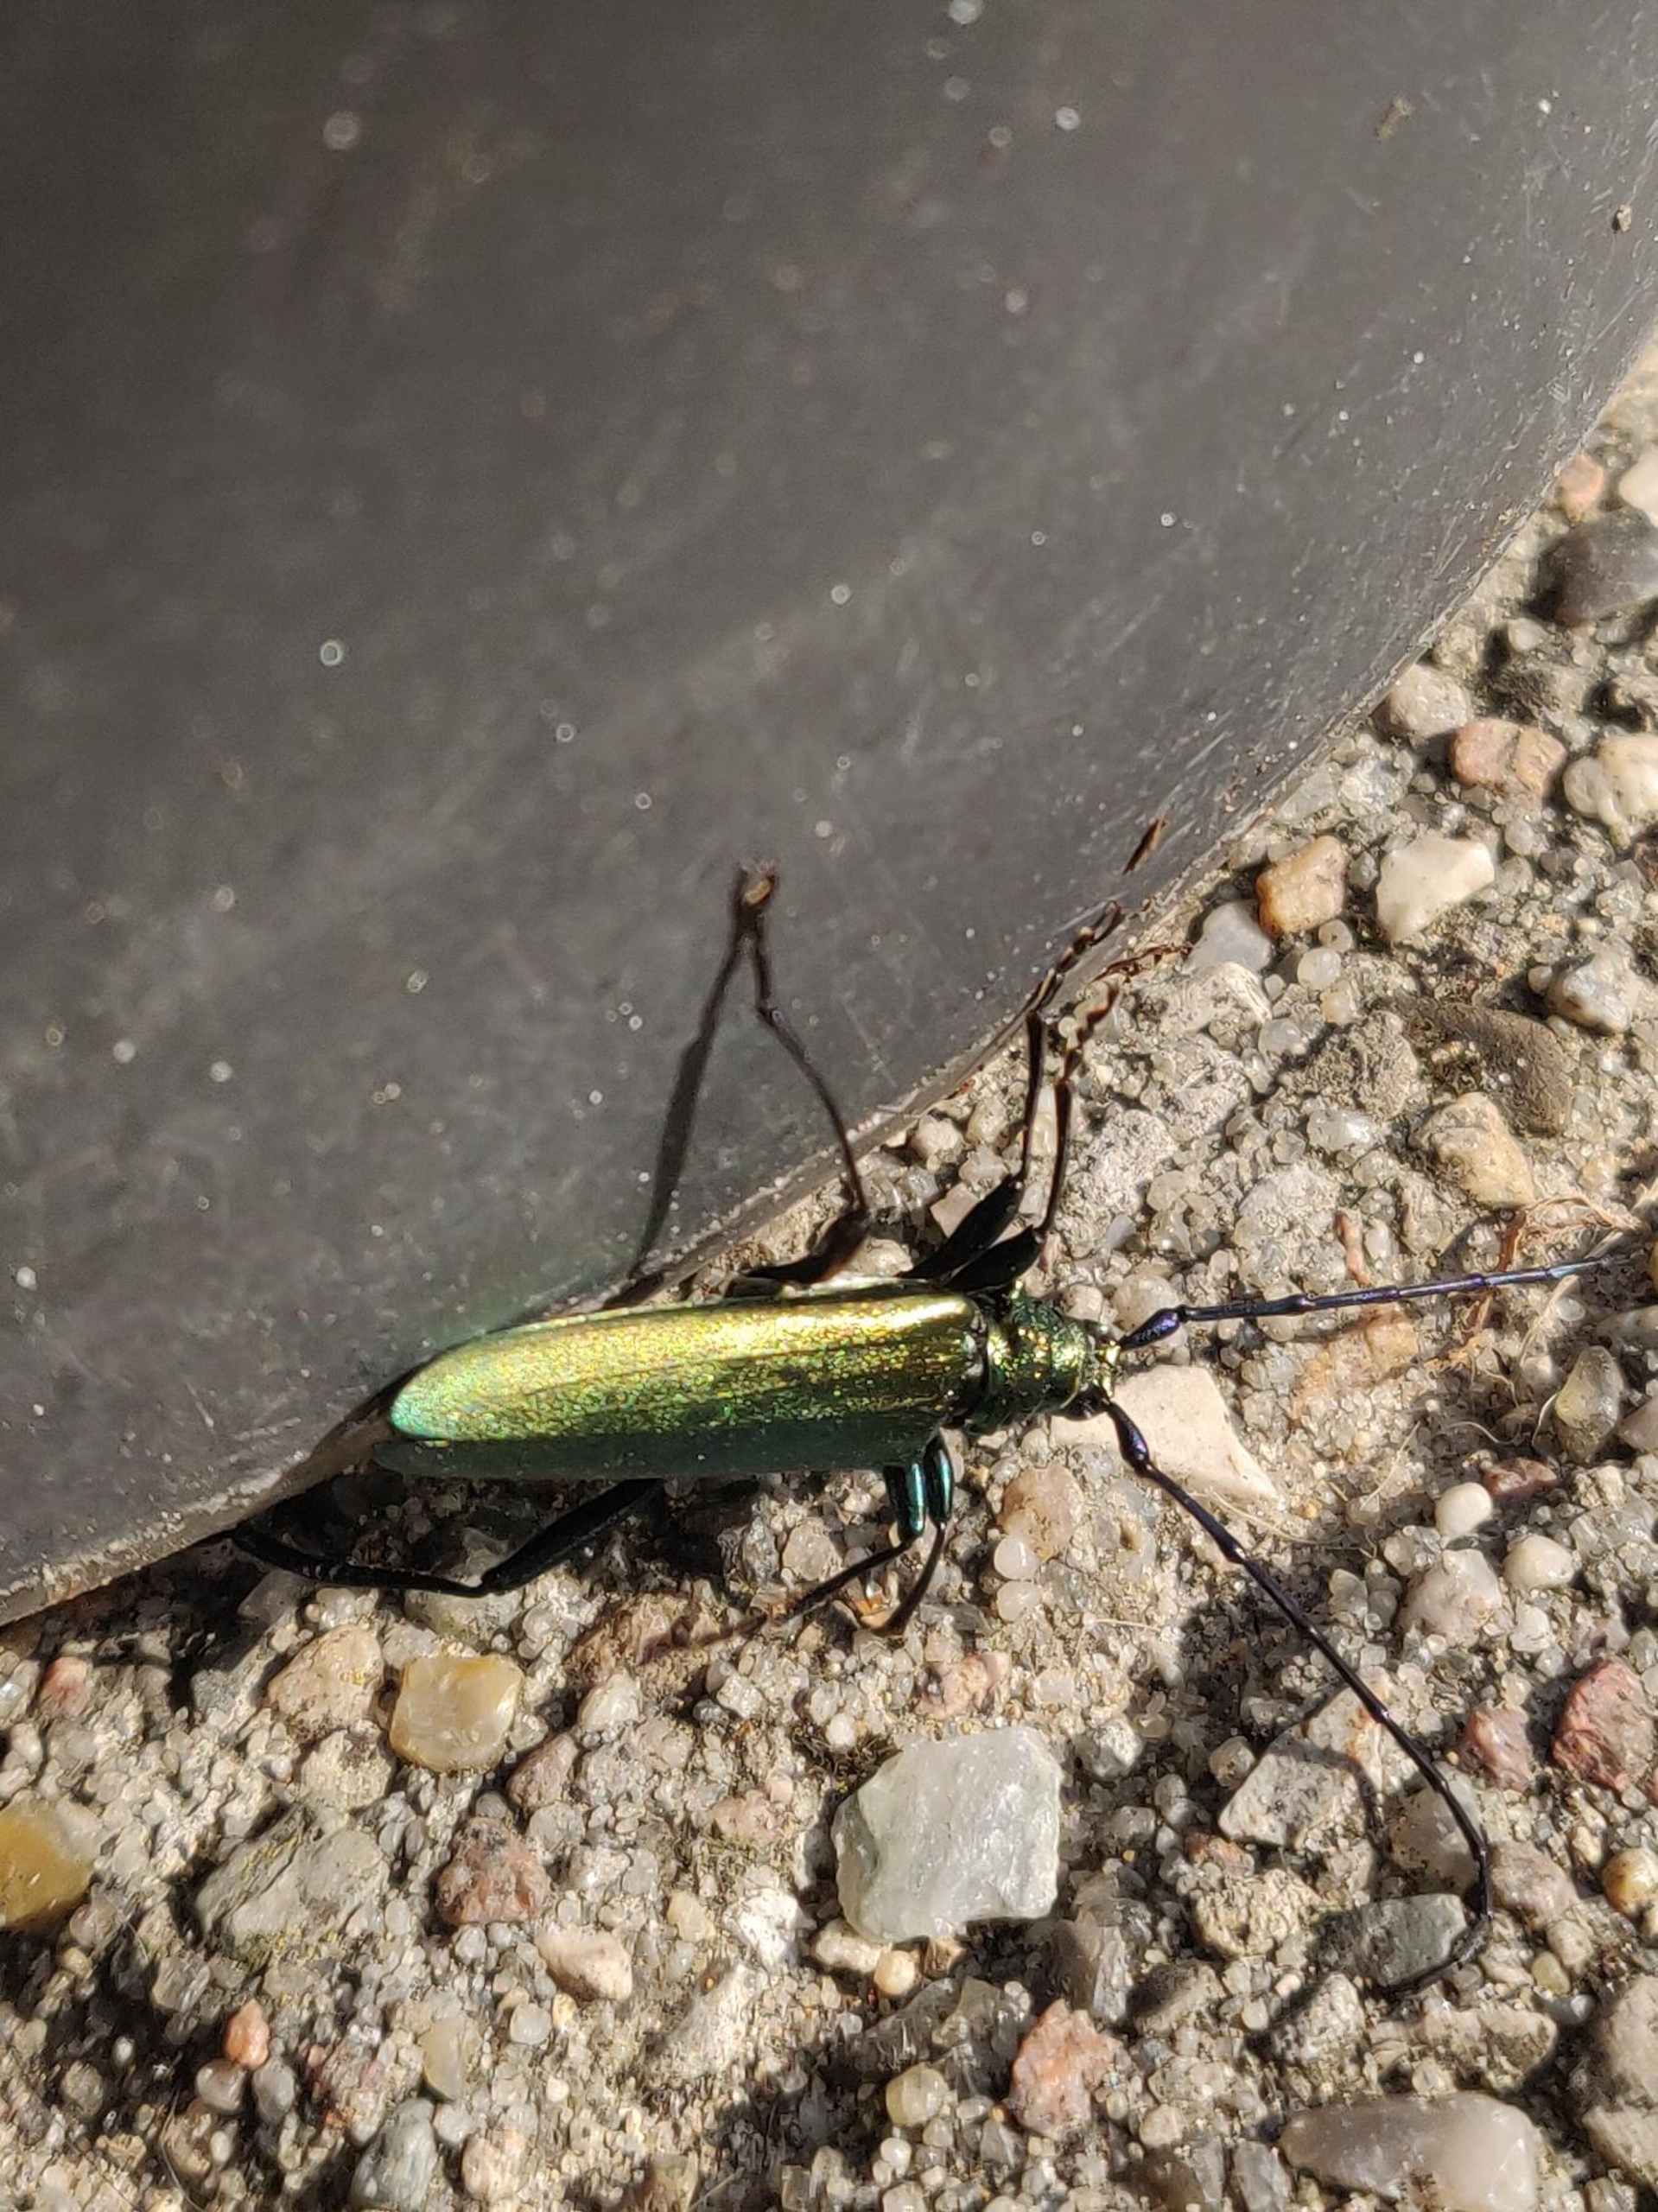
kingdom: Animalia
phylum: Arthropoda
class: Insecta
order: Coleoptera
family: Cerambycidae
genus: Aromia
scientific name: Aromia moschata
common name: Moskusbuk
